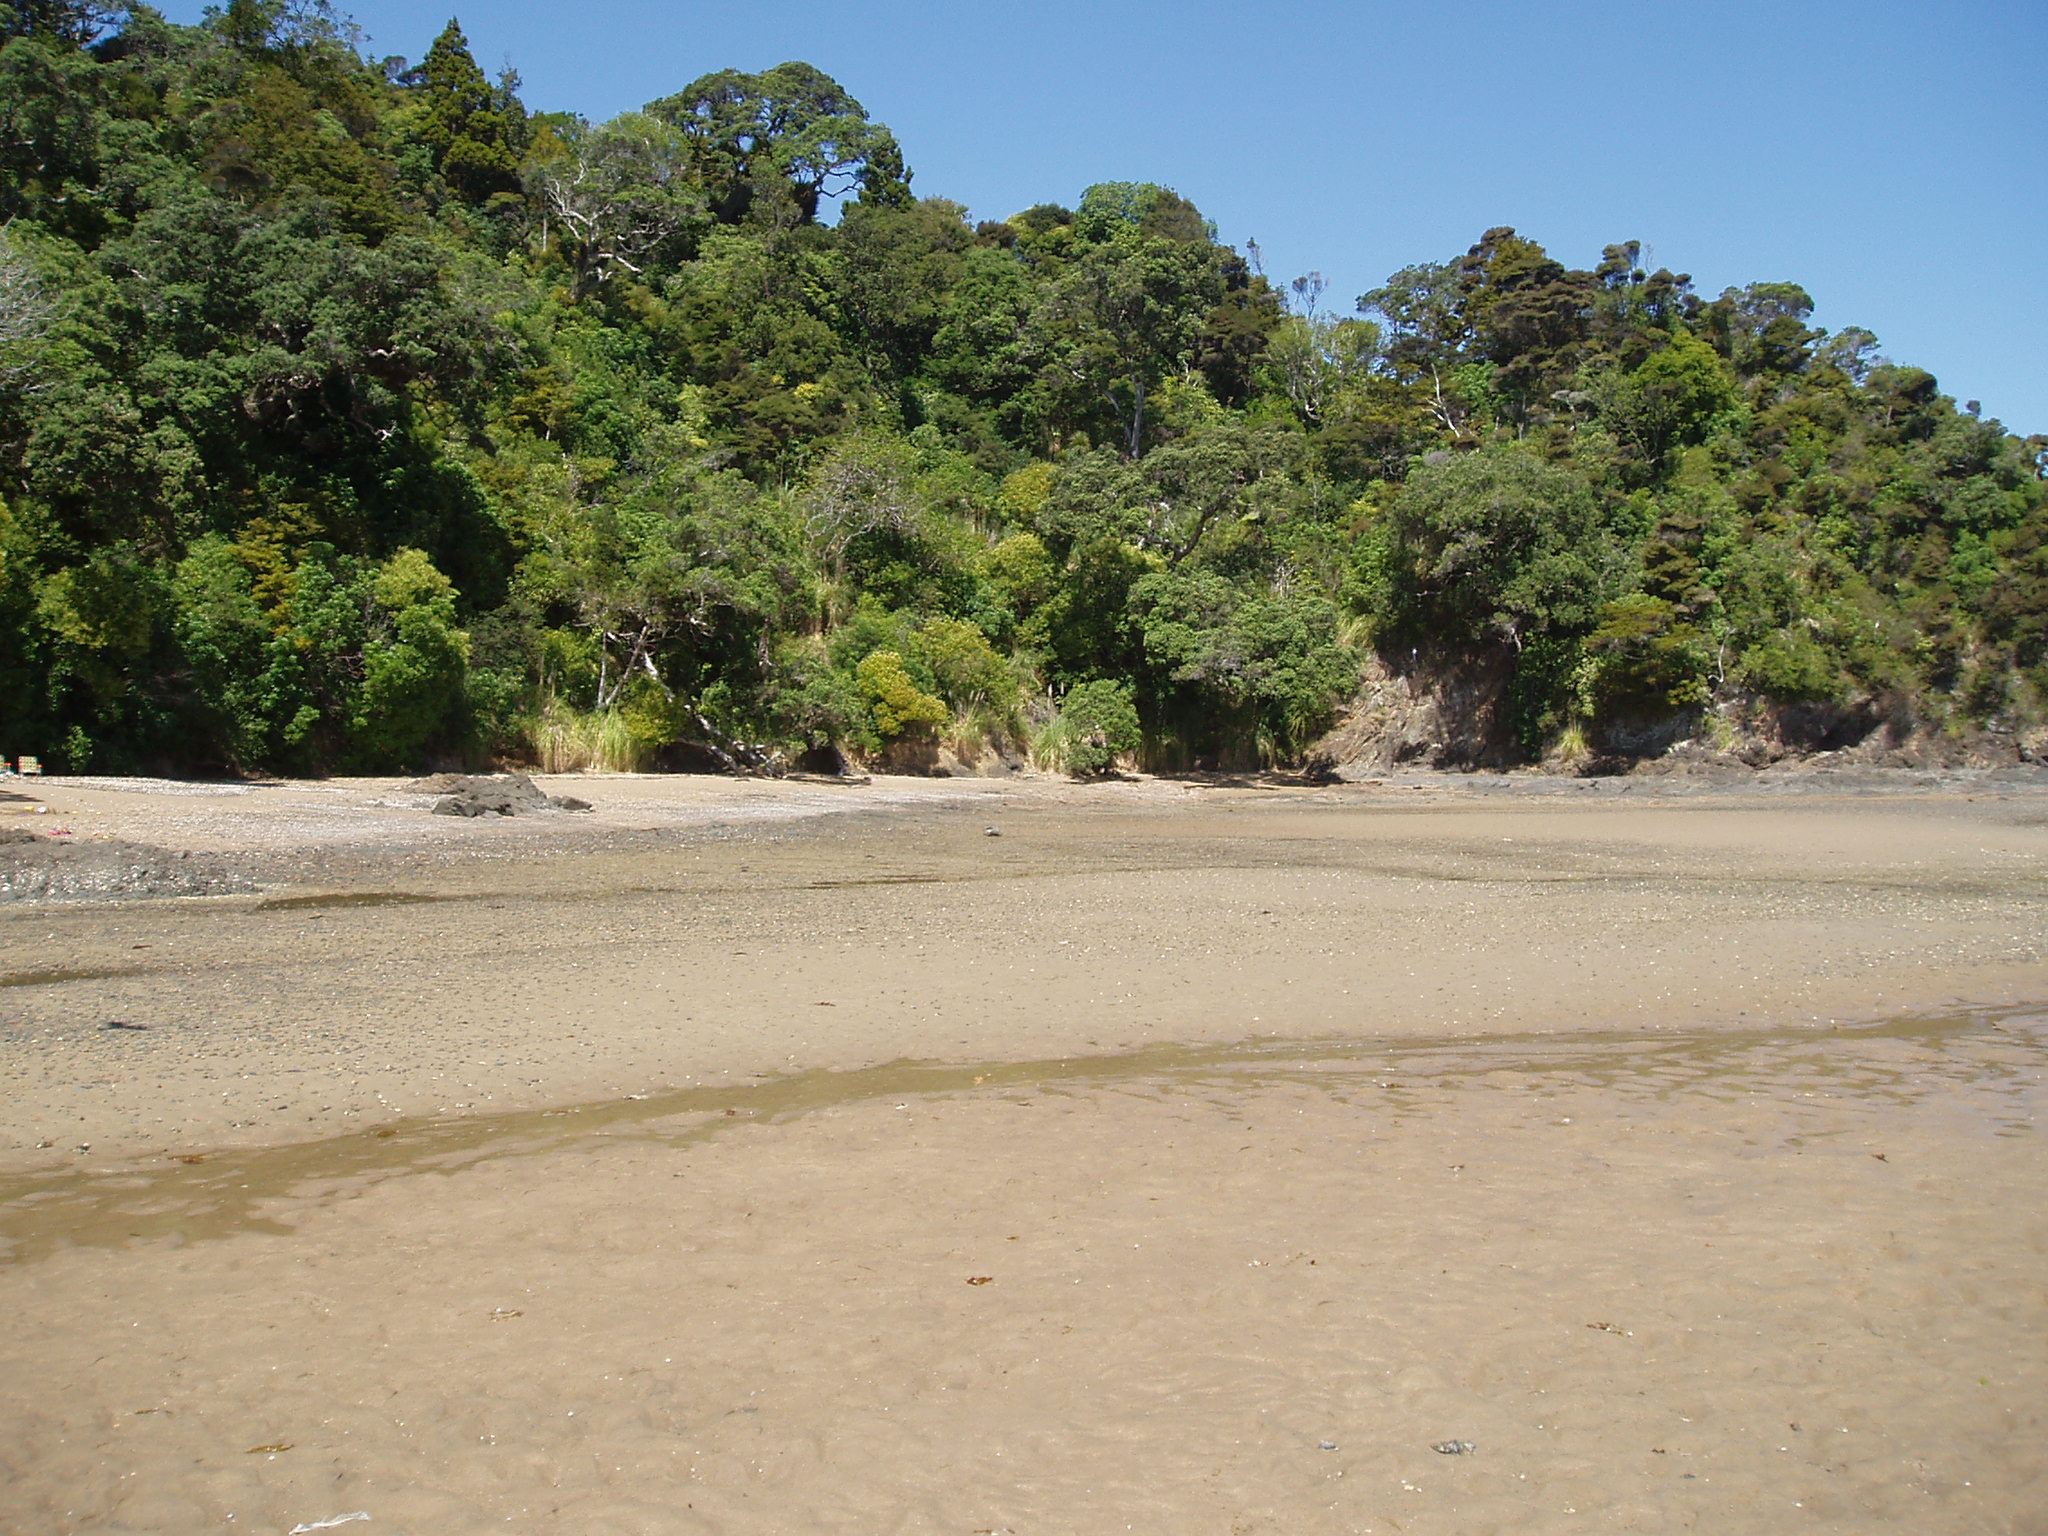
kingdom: Plantae
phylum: Tracheophyta
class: Magnoliopsida
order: Lamiales
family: Oleaceae
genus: Ligustrum
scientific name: Ligustrum lucidum
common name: Glossy privet
